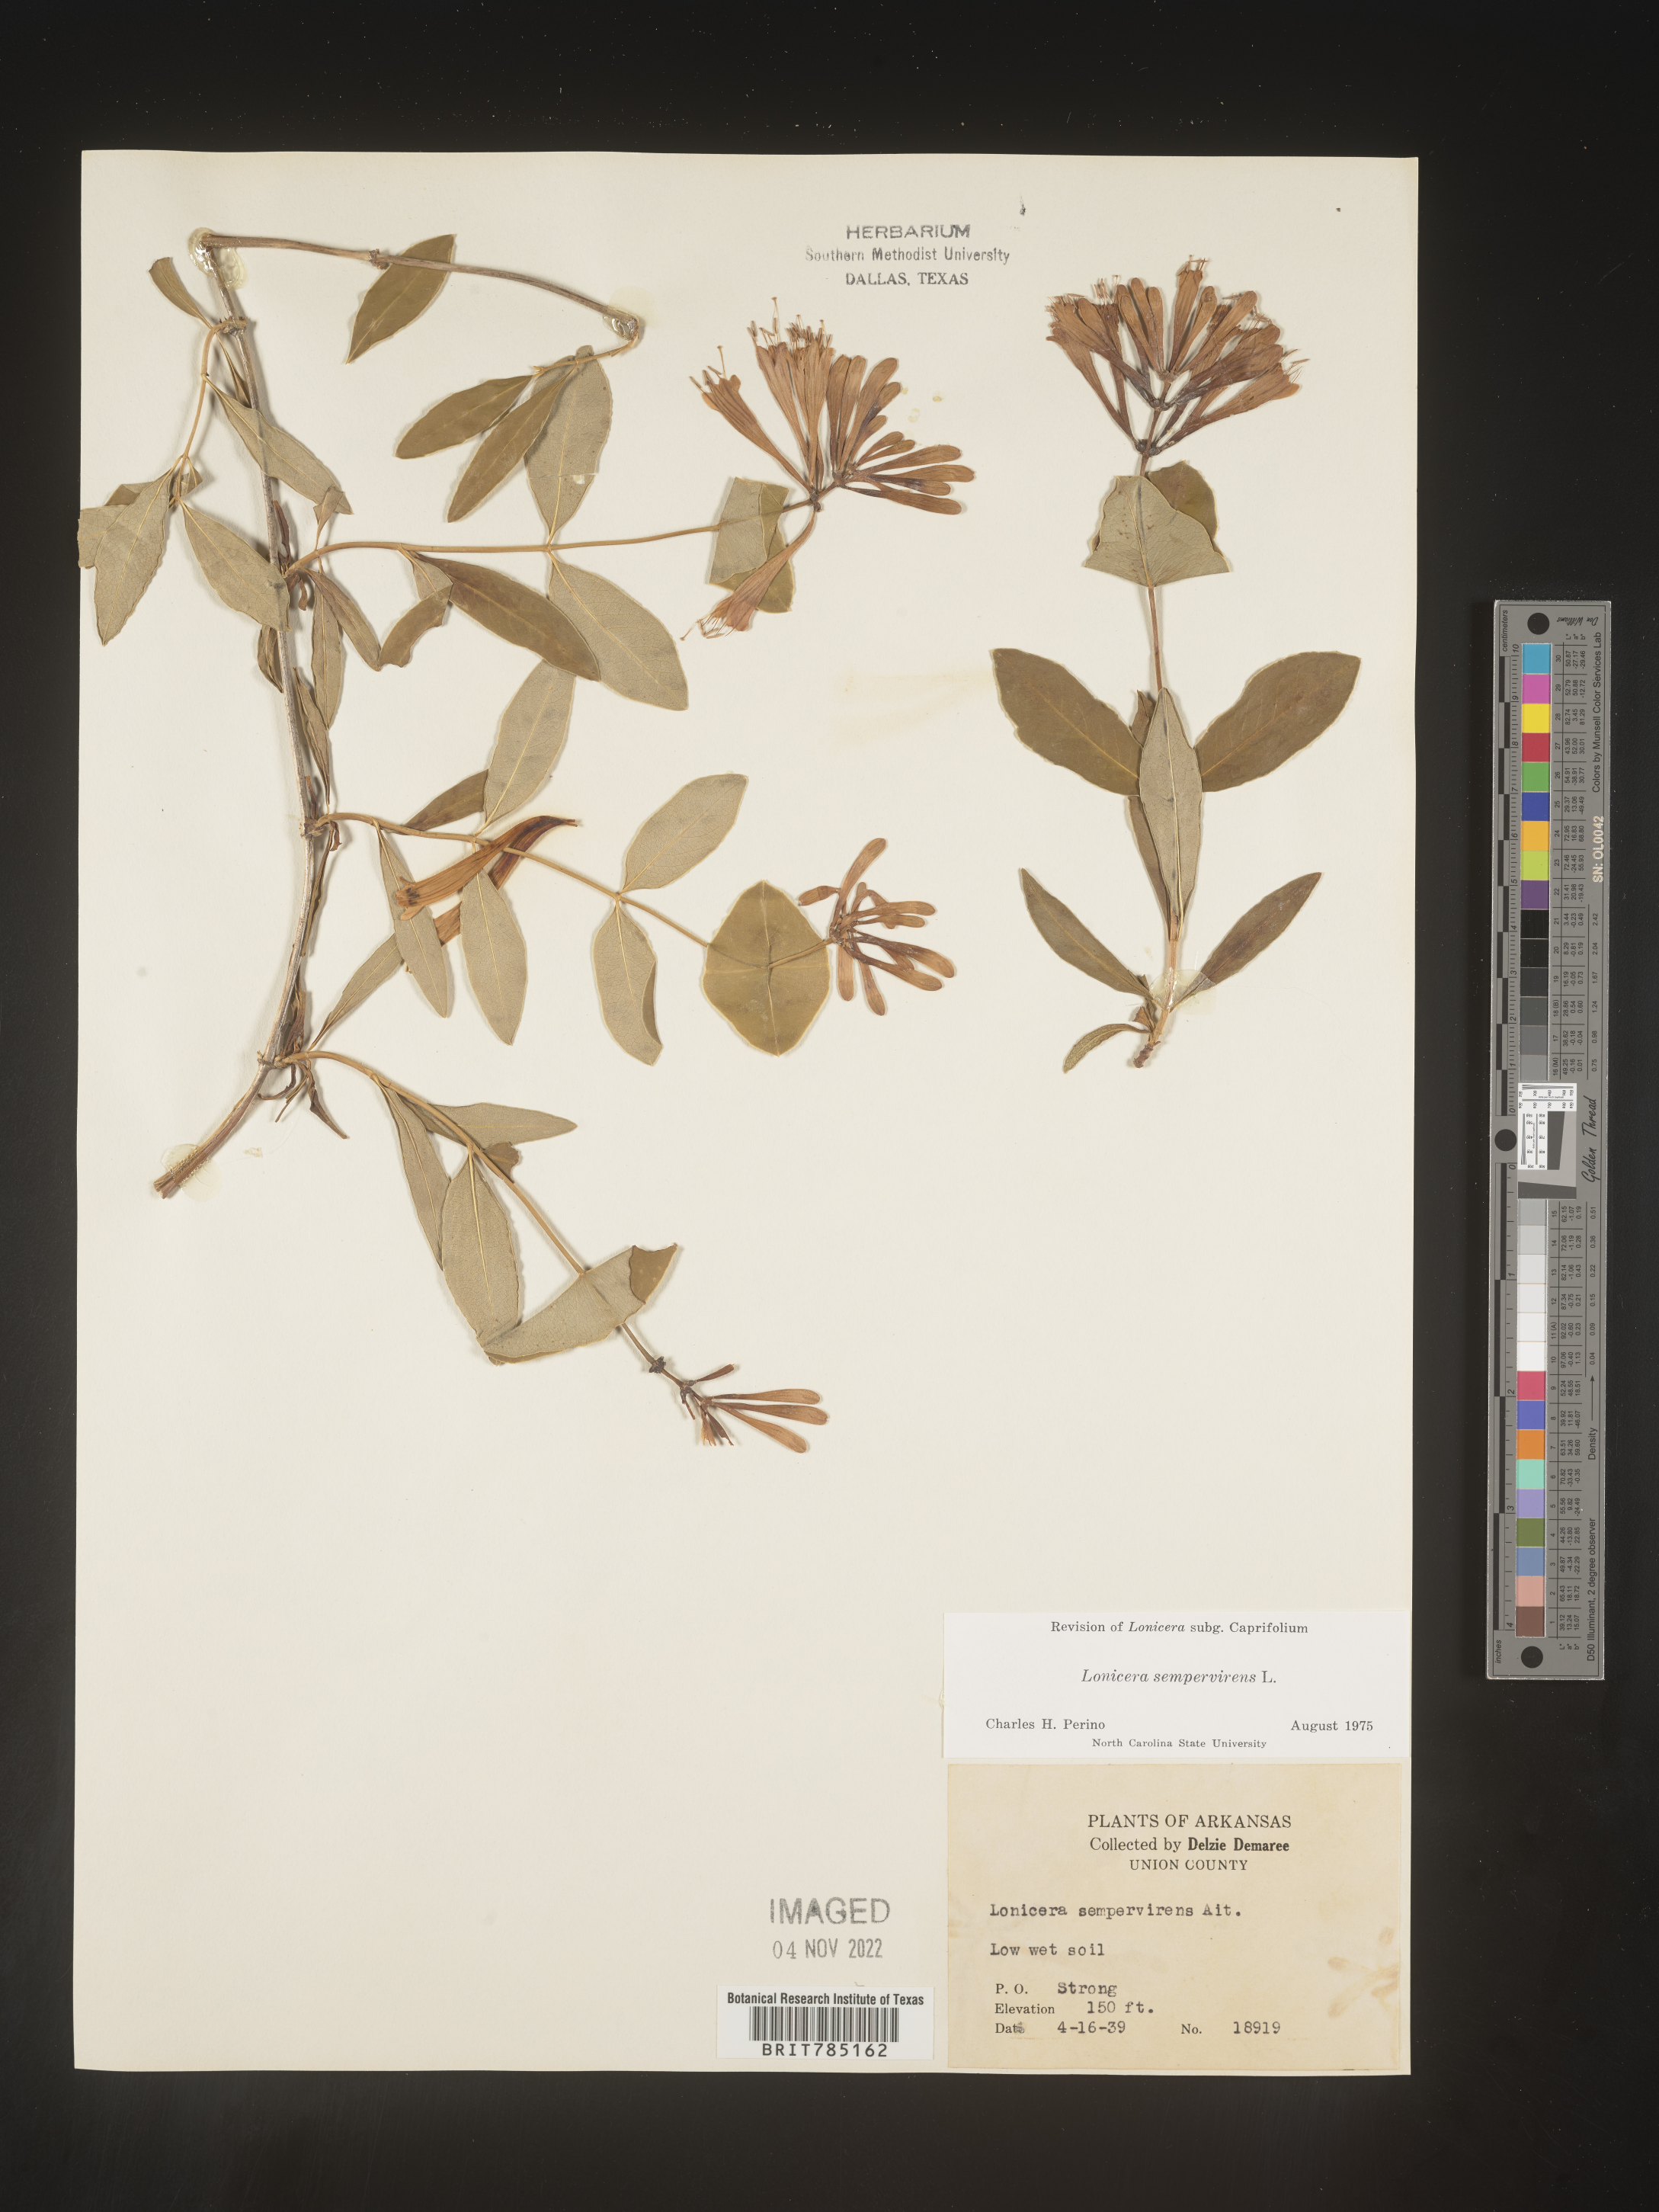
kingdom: Plantae
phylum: Tracheophyta
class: Magnoliopsida
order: Dipsacales
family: Caprifoliaceae
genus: Lonicera
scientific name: Lonicera sempervirens
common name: Coral honeysuckle
